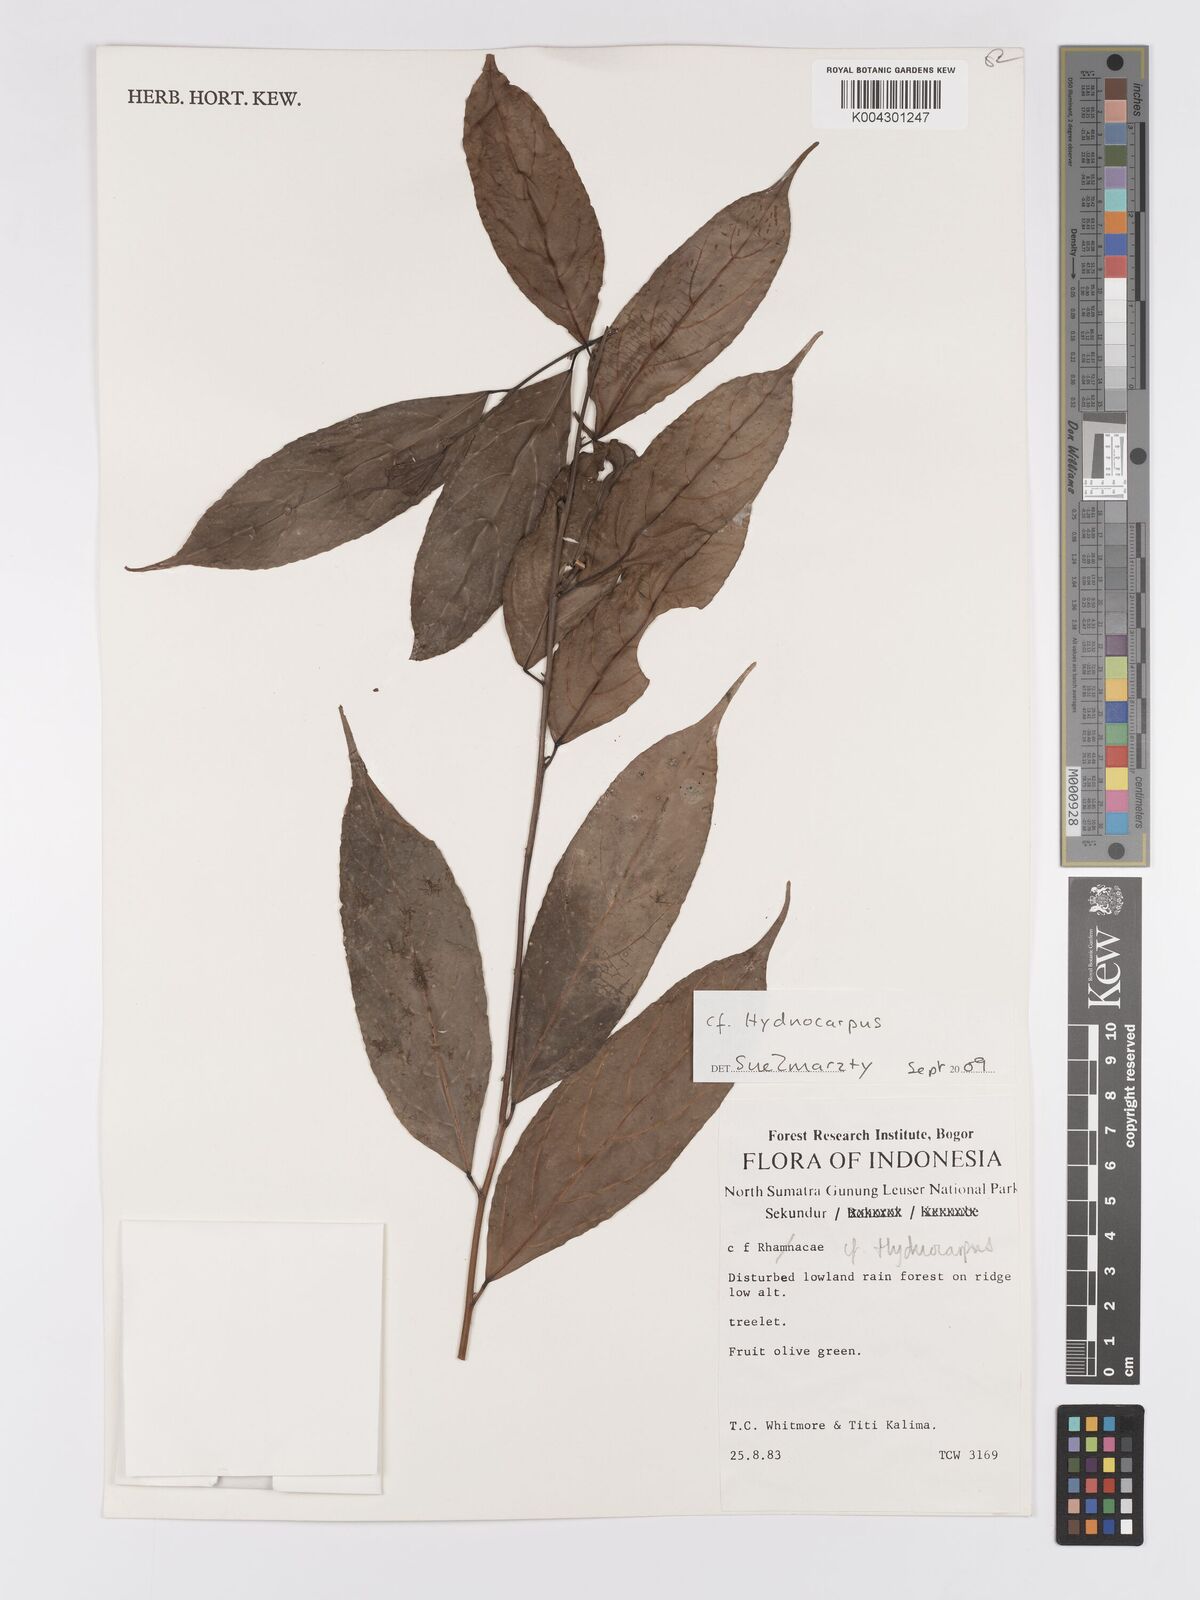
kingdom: Plantae
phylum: Tracheophyta
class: Magnoliopsida
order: Malpighiales
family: Achariaceae
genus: Hydnocarpus
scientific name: Hydnocarpus
